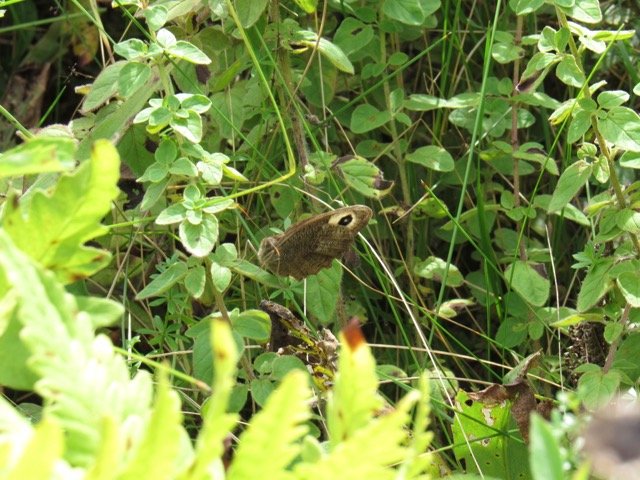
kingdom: Animalia
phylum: Arthropoda
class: Insecta
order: Lepidoptera
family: Nymphalidae
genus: Cercyonis
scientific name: Cercyonis pegala
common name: Common Wood-Nymph
